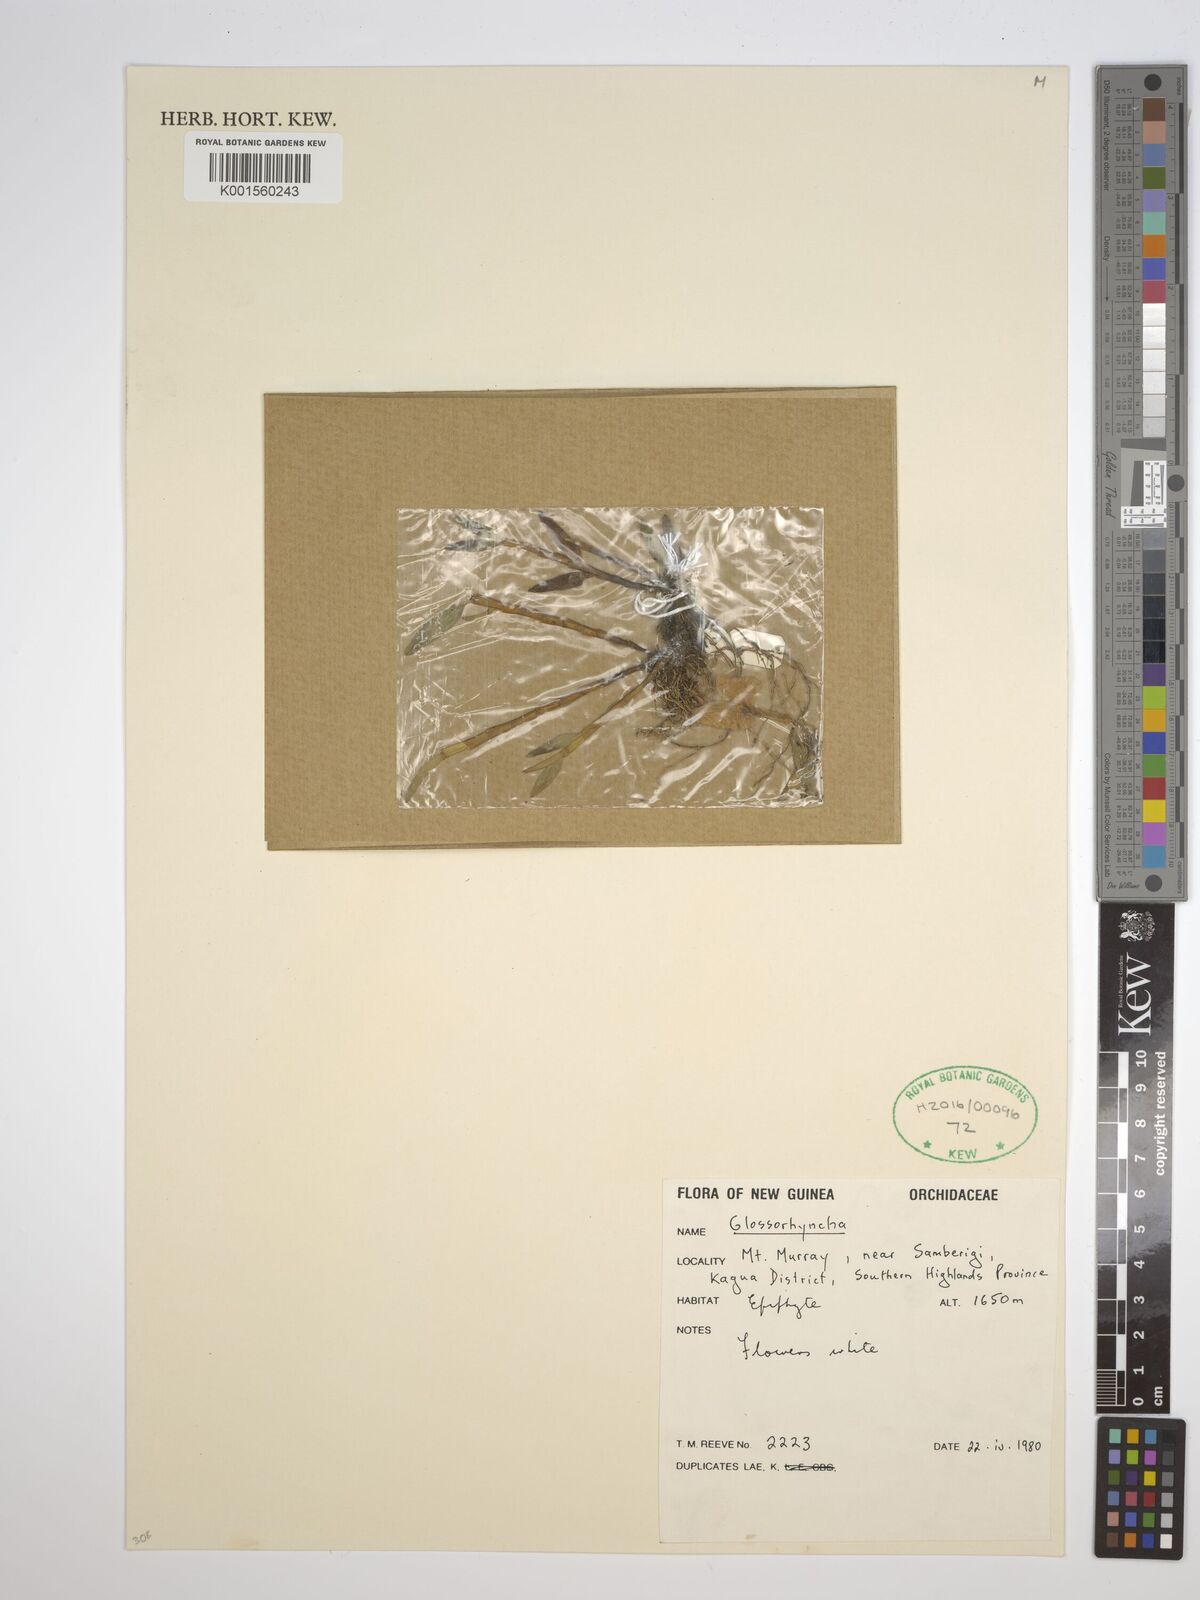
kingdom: Plantae
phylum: Tracheophyta
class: Liliopsida
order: Asparagales
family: Orchidaceae
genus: Glomera
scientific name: Glomera
